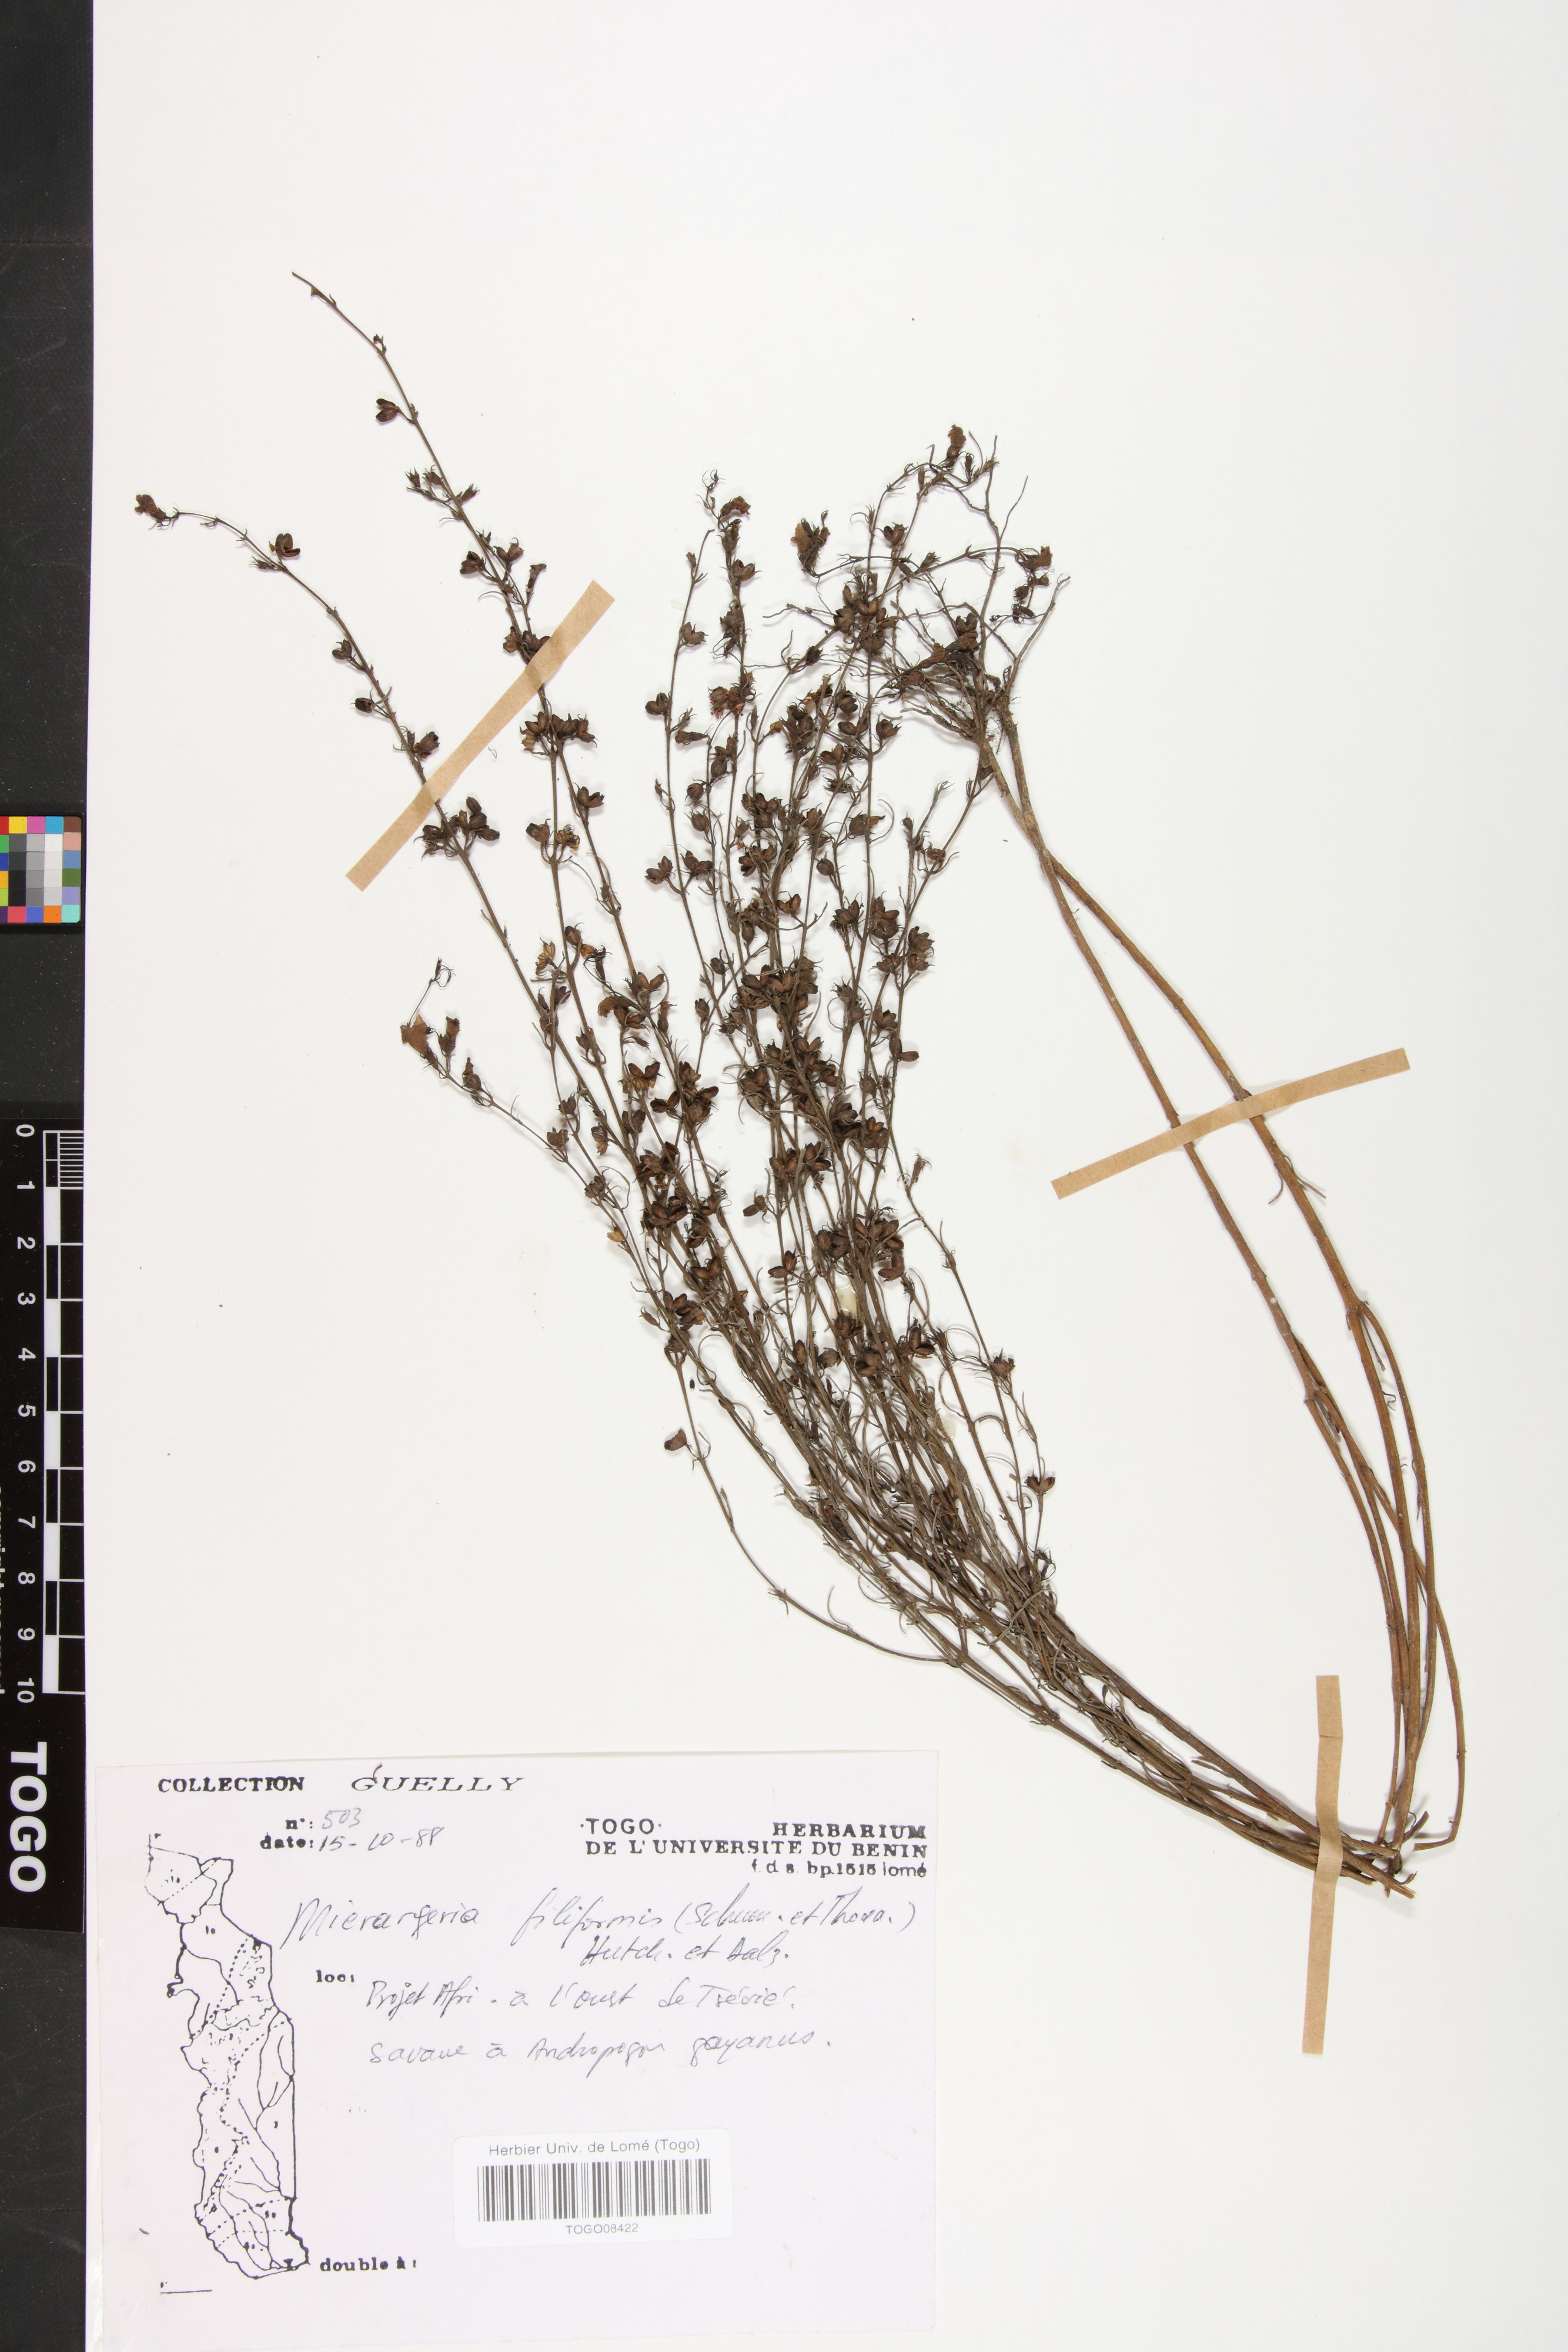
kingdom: Plantae
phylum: Tracheophyta
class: Magnoliopsida
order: Lamiales
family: Orobanchaceae
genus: Micrargeria
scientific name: Micrargeria filiformis
